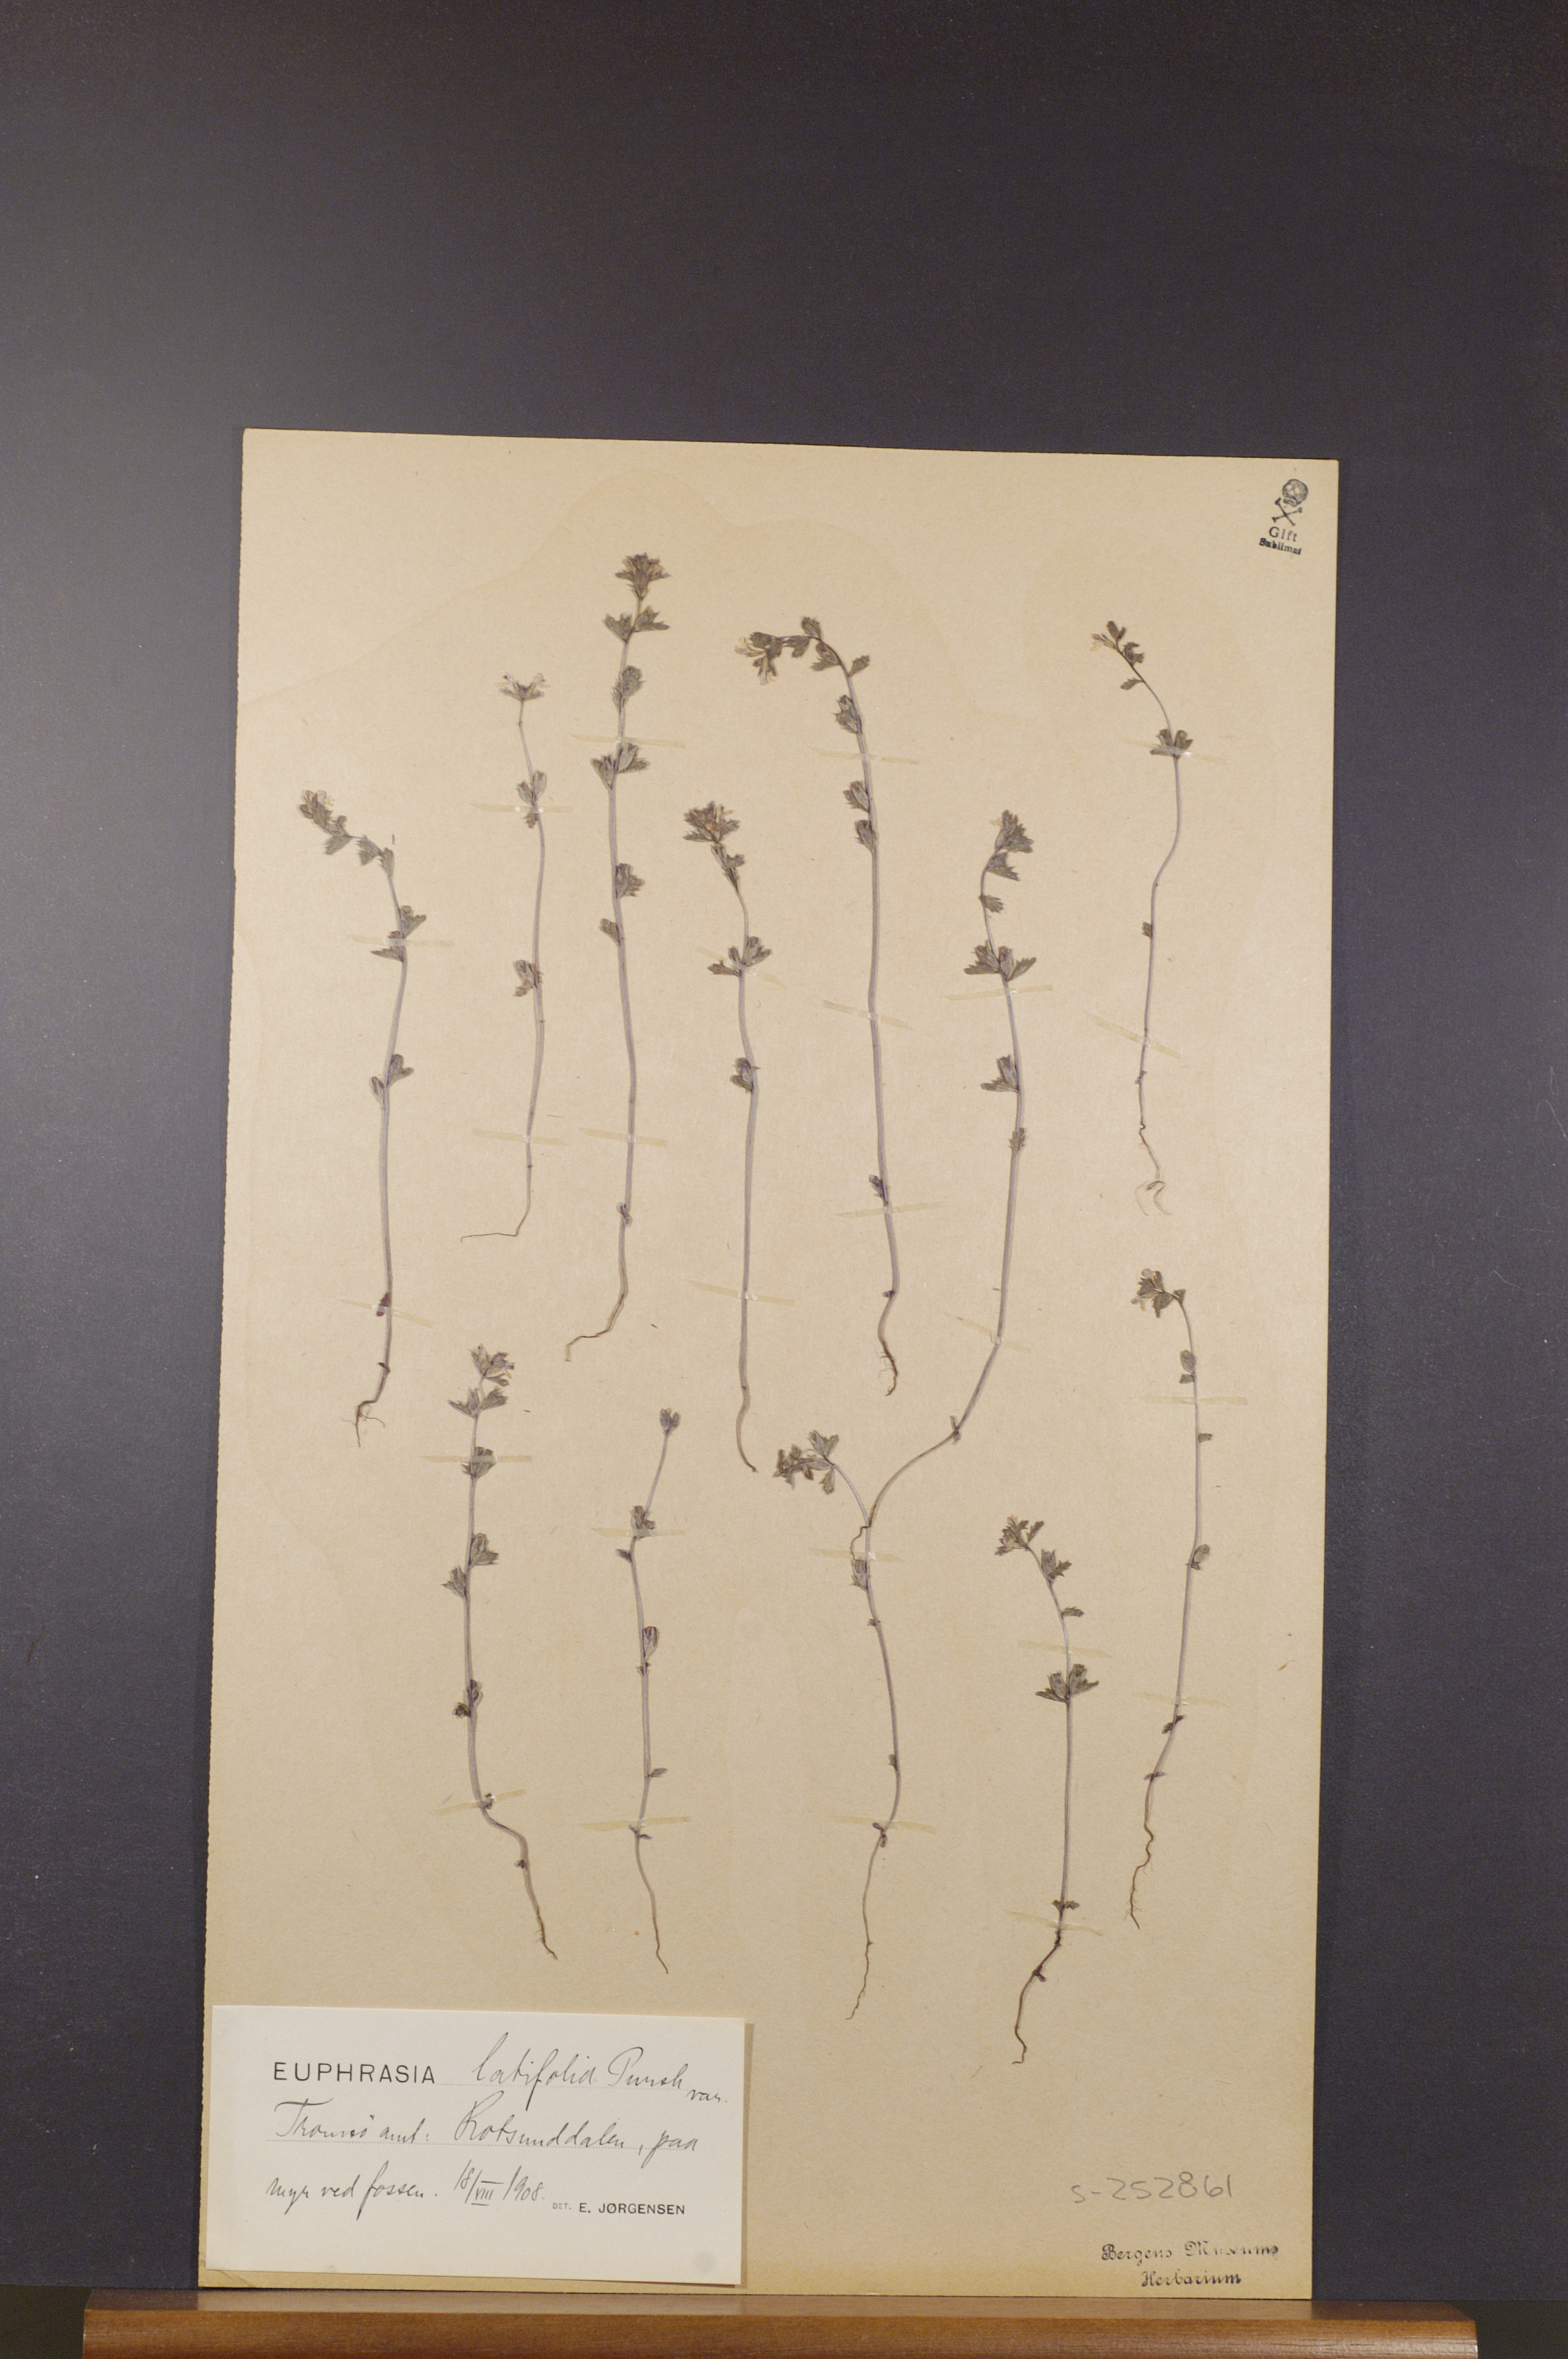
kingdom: Plantae
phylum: Tracheophyta
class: Magnoliopsida
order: Lamiales
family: Orobanchaceae
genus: Euphrasia
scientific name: Euphrasia wettsteinii
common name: Wettstein's eyebright
